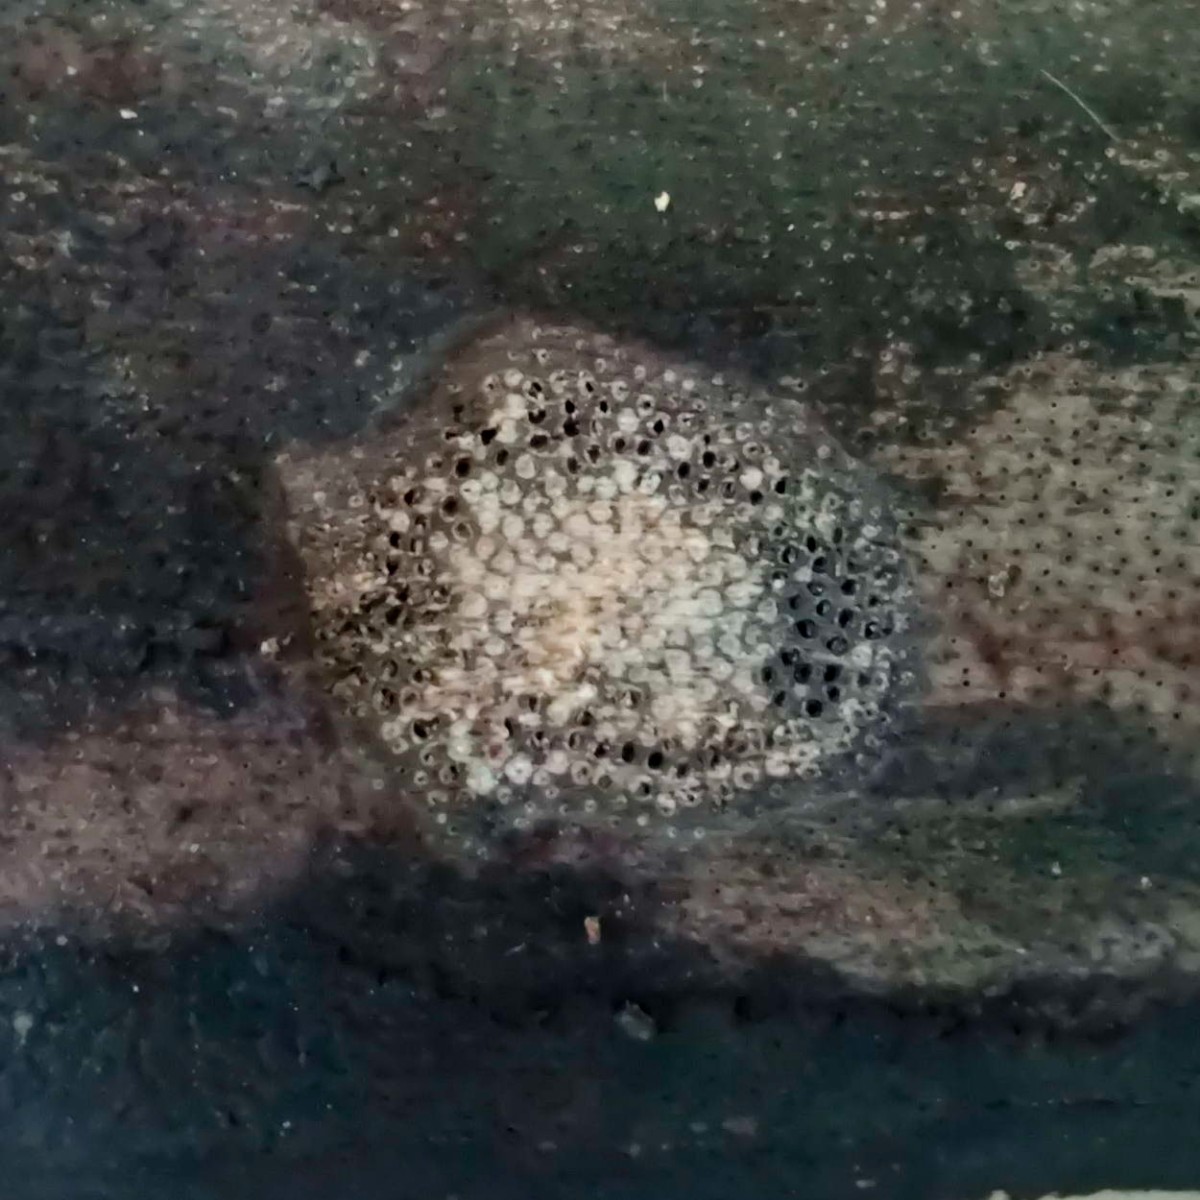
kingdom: Fungi
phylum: Ascomycota
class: Sordariomycetes
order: Xylariales
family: Diatrypaceae
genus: Eutypa
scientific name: Eutypa maura
